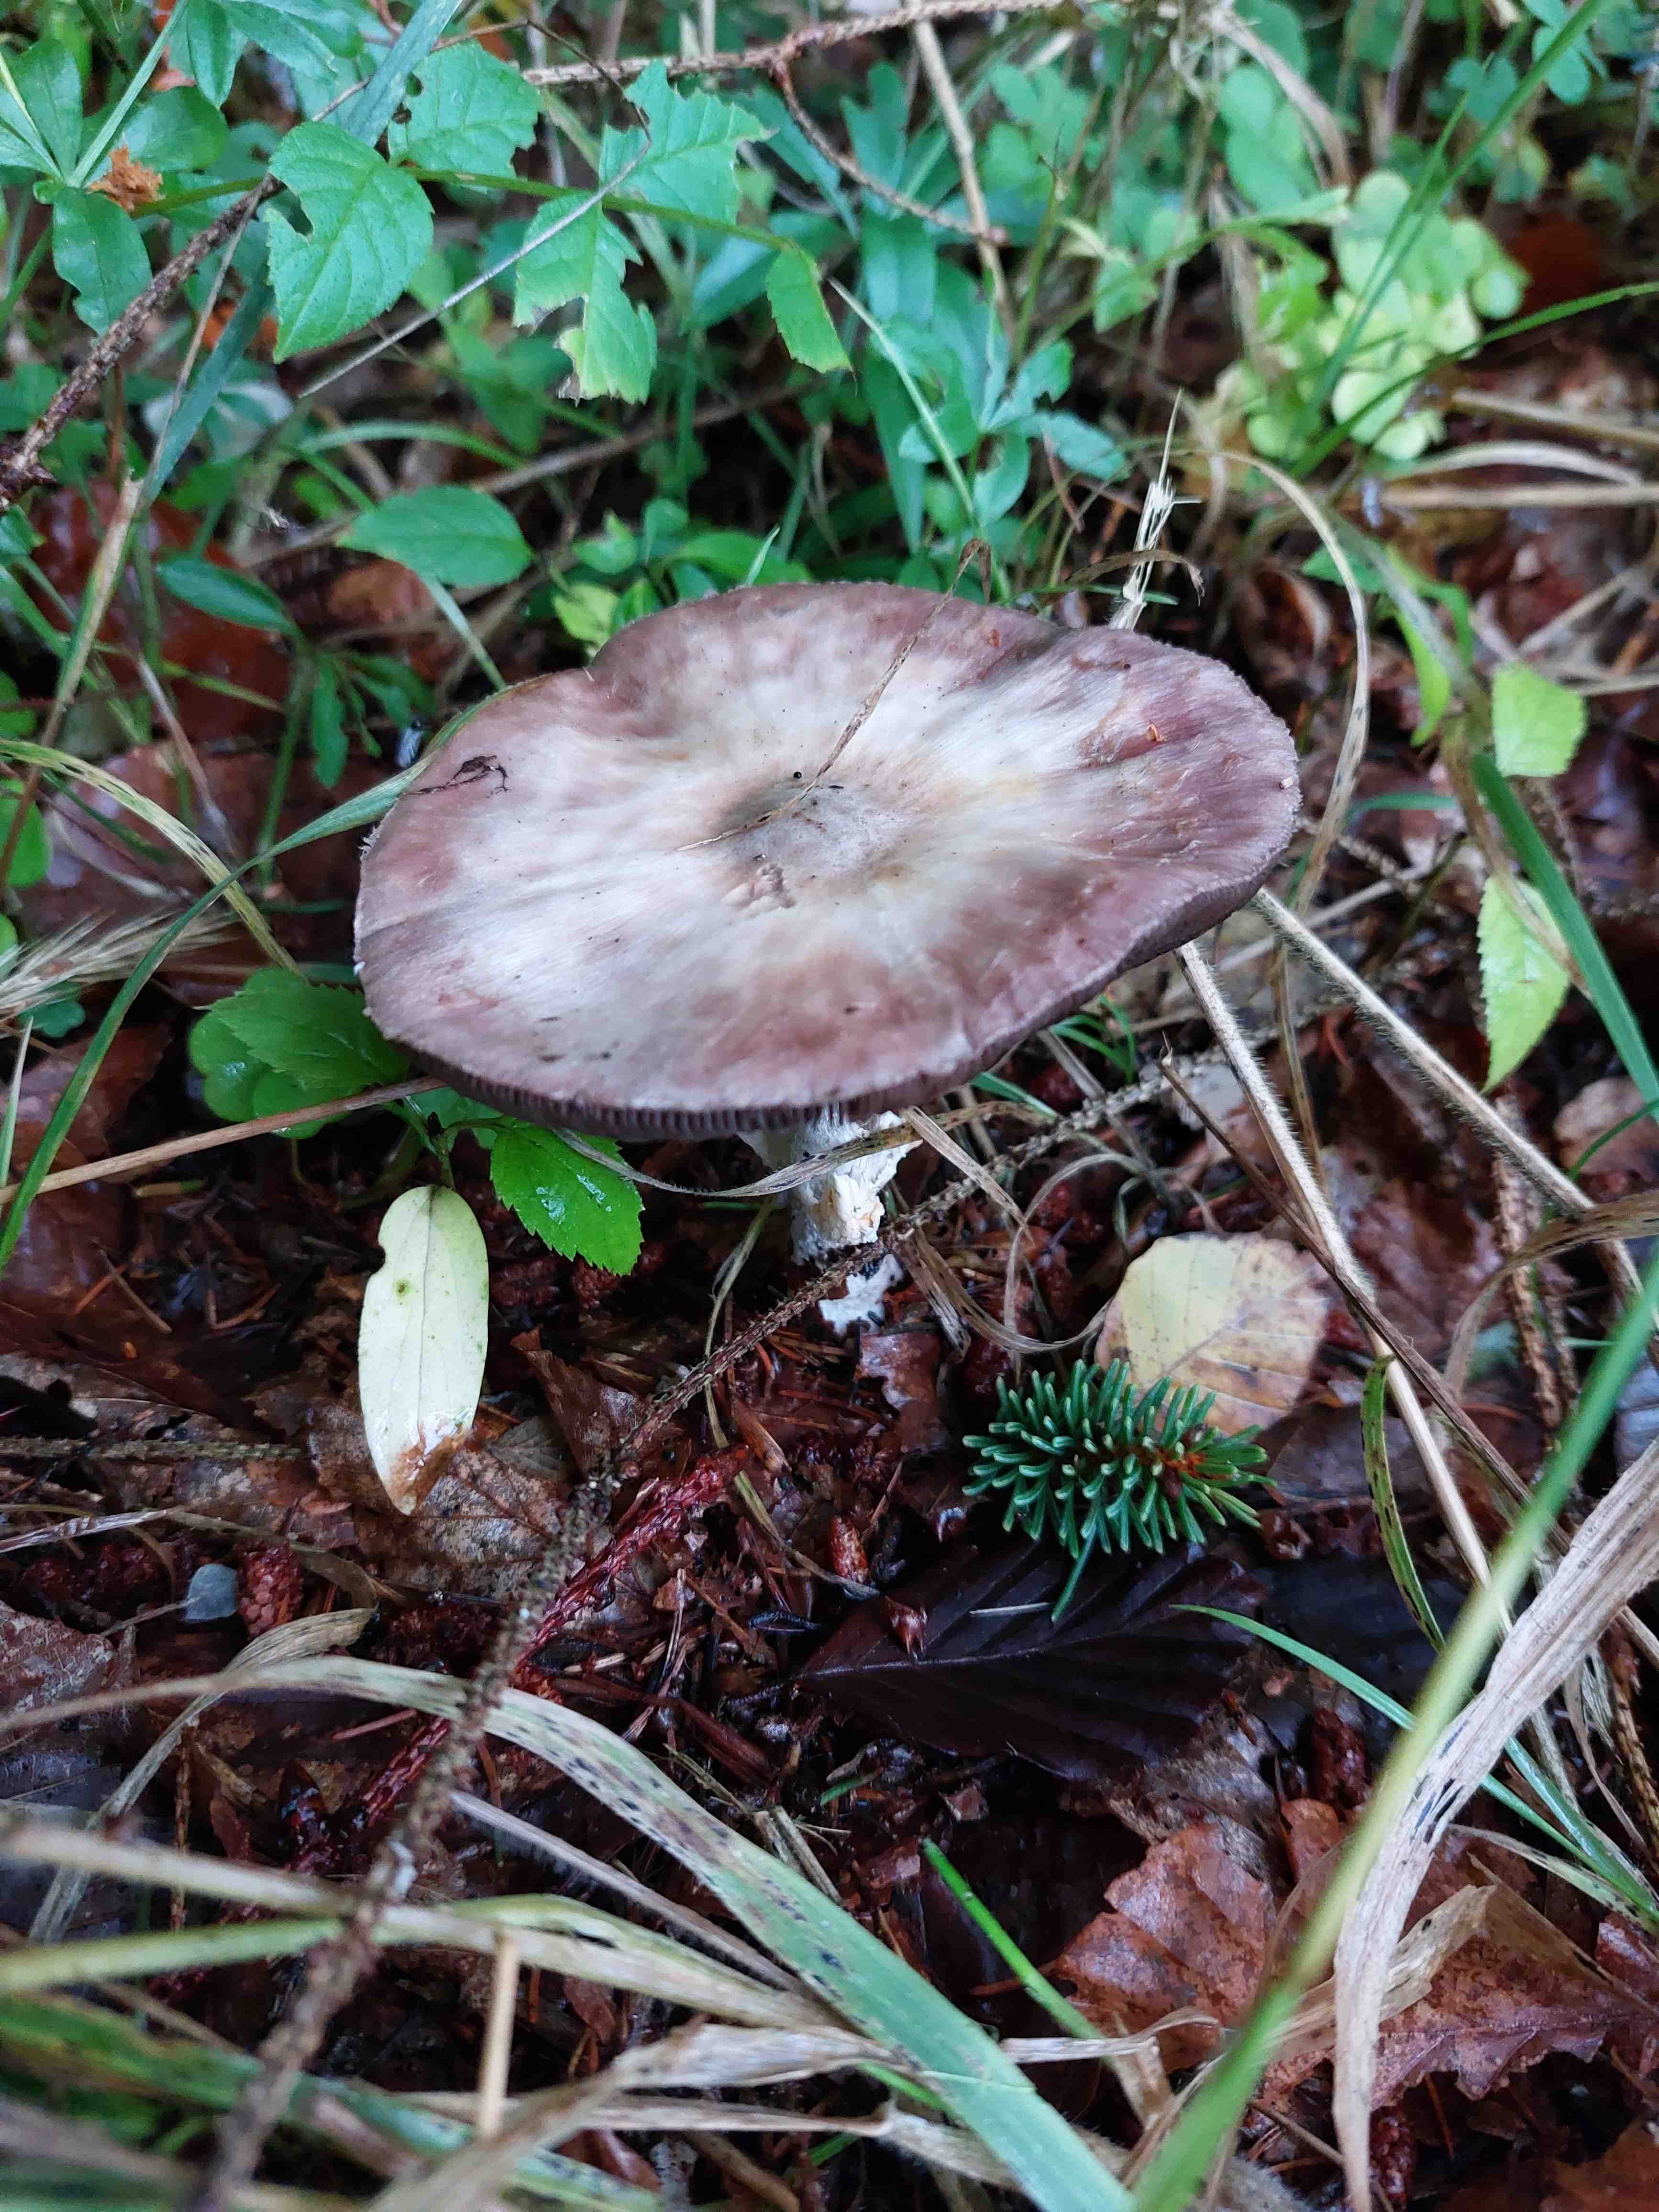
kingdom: Fungi
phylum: Basidiomycota
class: Agaricomycetes
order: Agaricales
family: Agaricaceae
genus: Agaricus
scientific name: Agaricus
